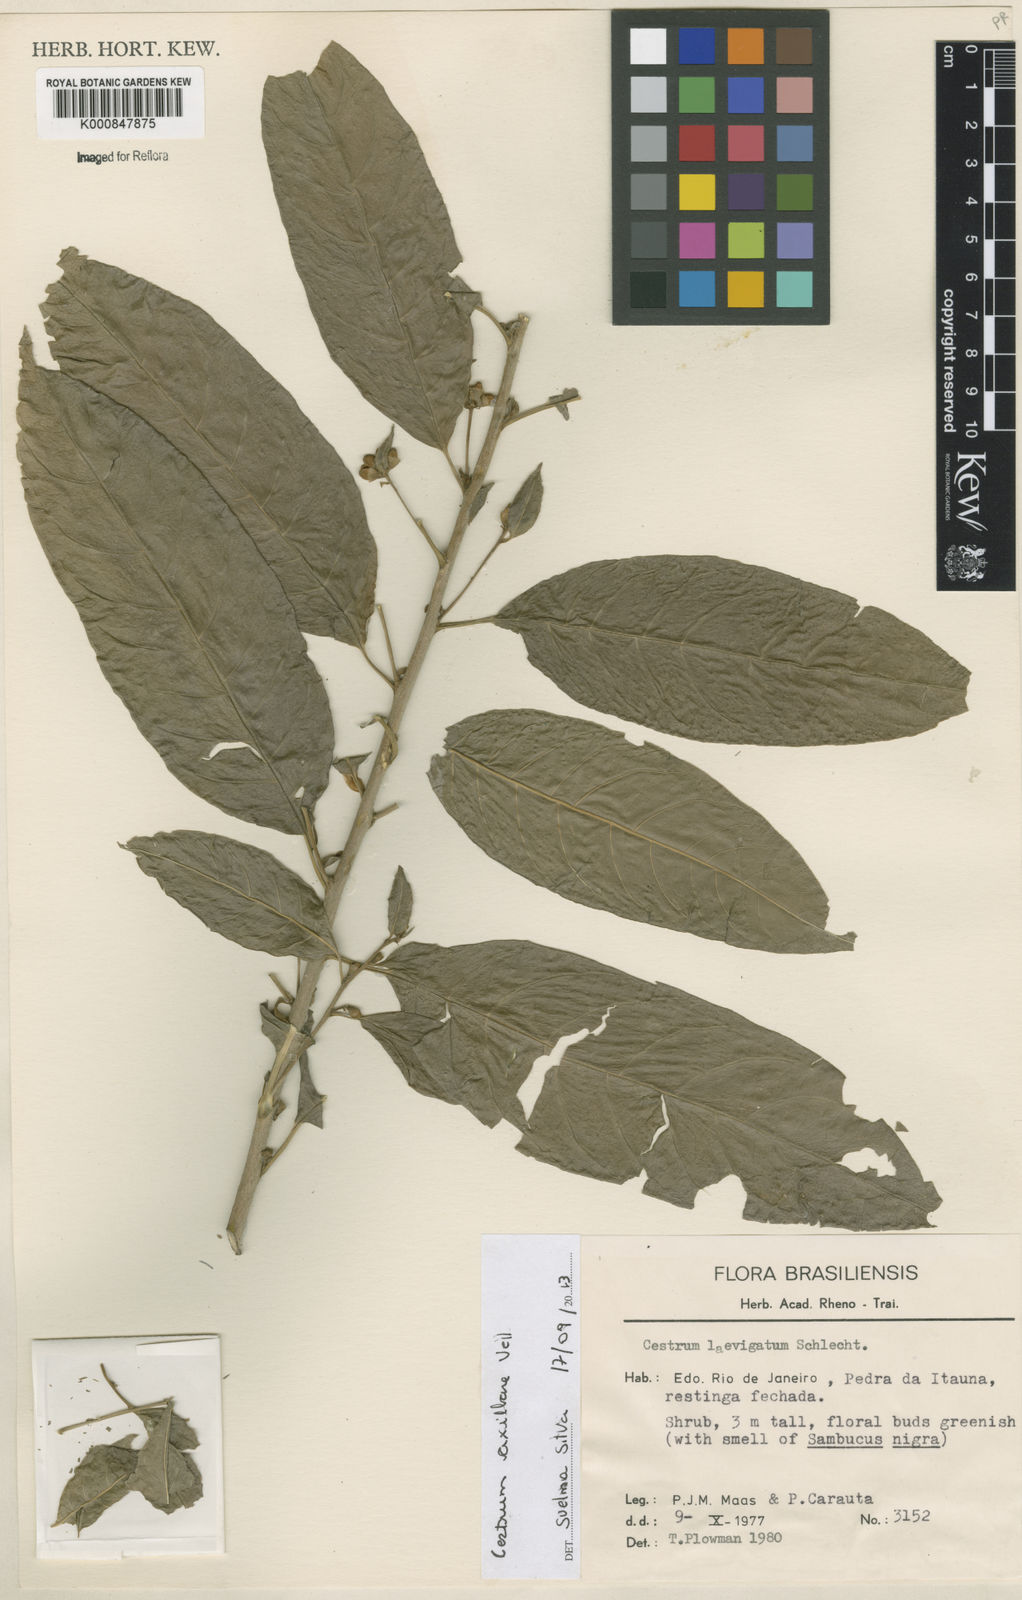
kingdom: Plantae
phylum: Tracheophyta
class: Magnoliopsida
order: Solanales
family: Solanaceae
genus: Cestrum
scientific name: Cestrum laevigatum
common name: Inkberry
